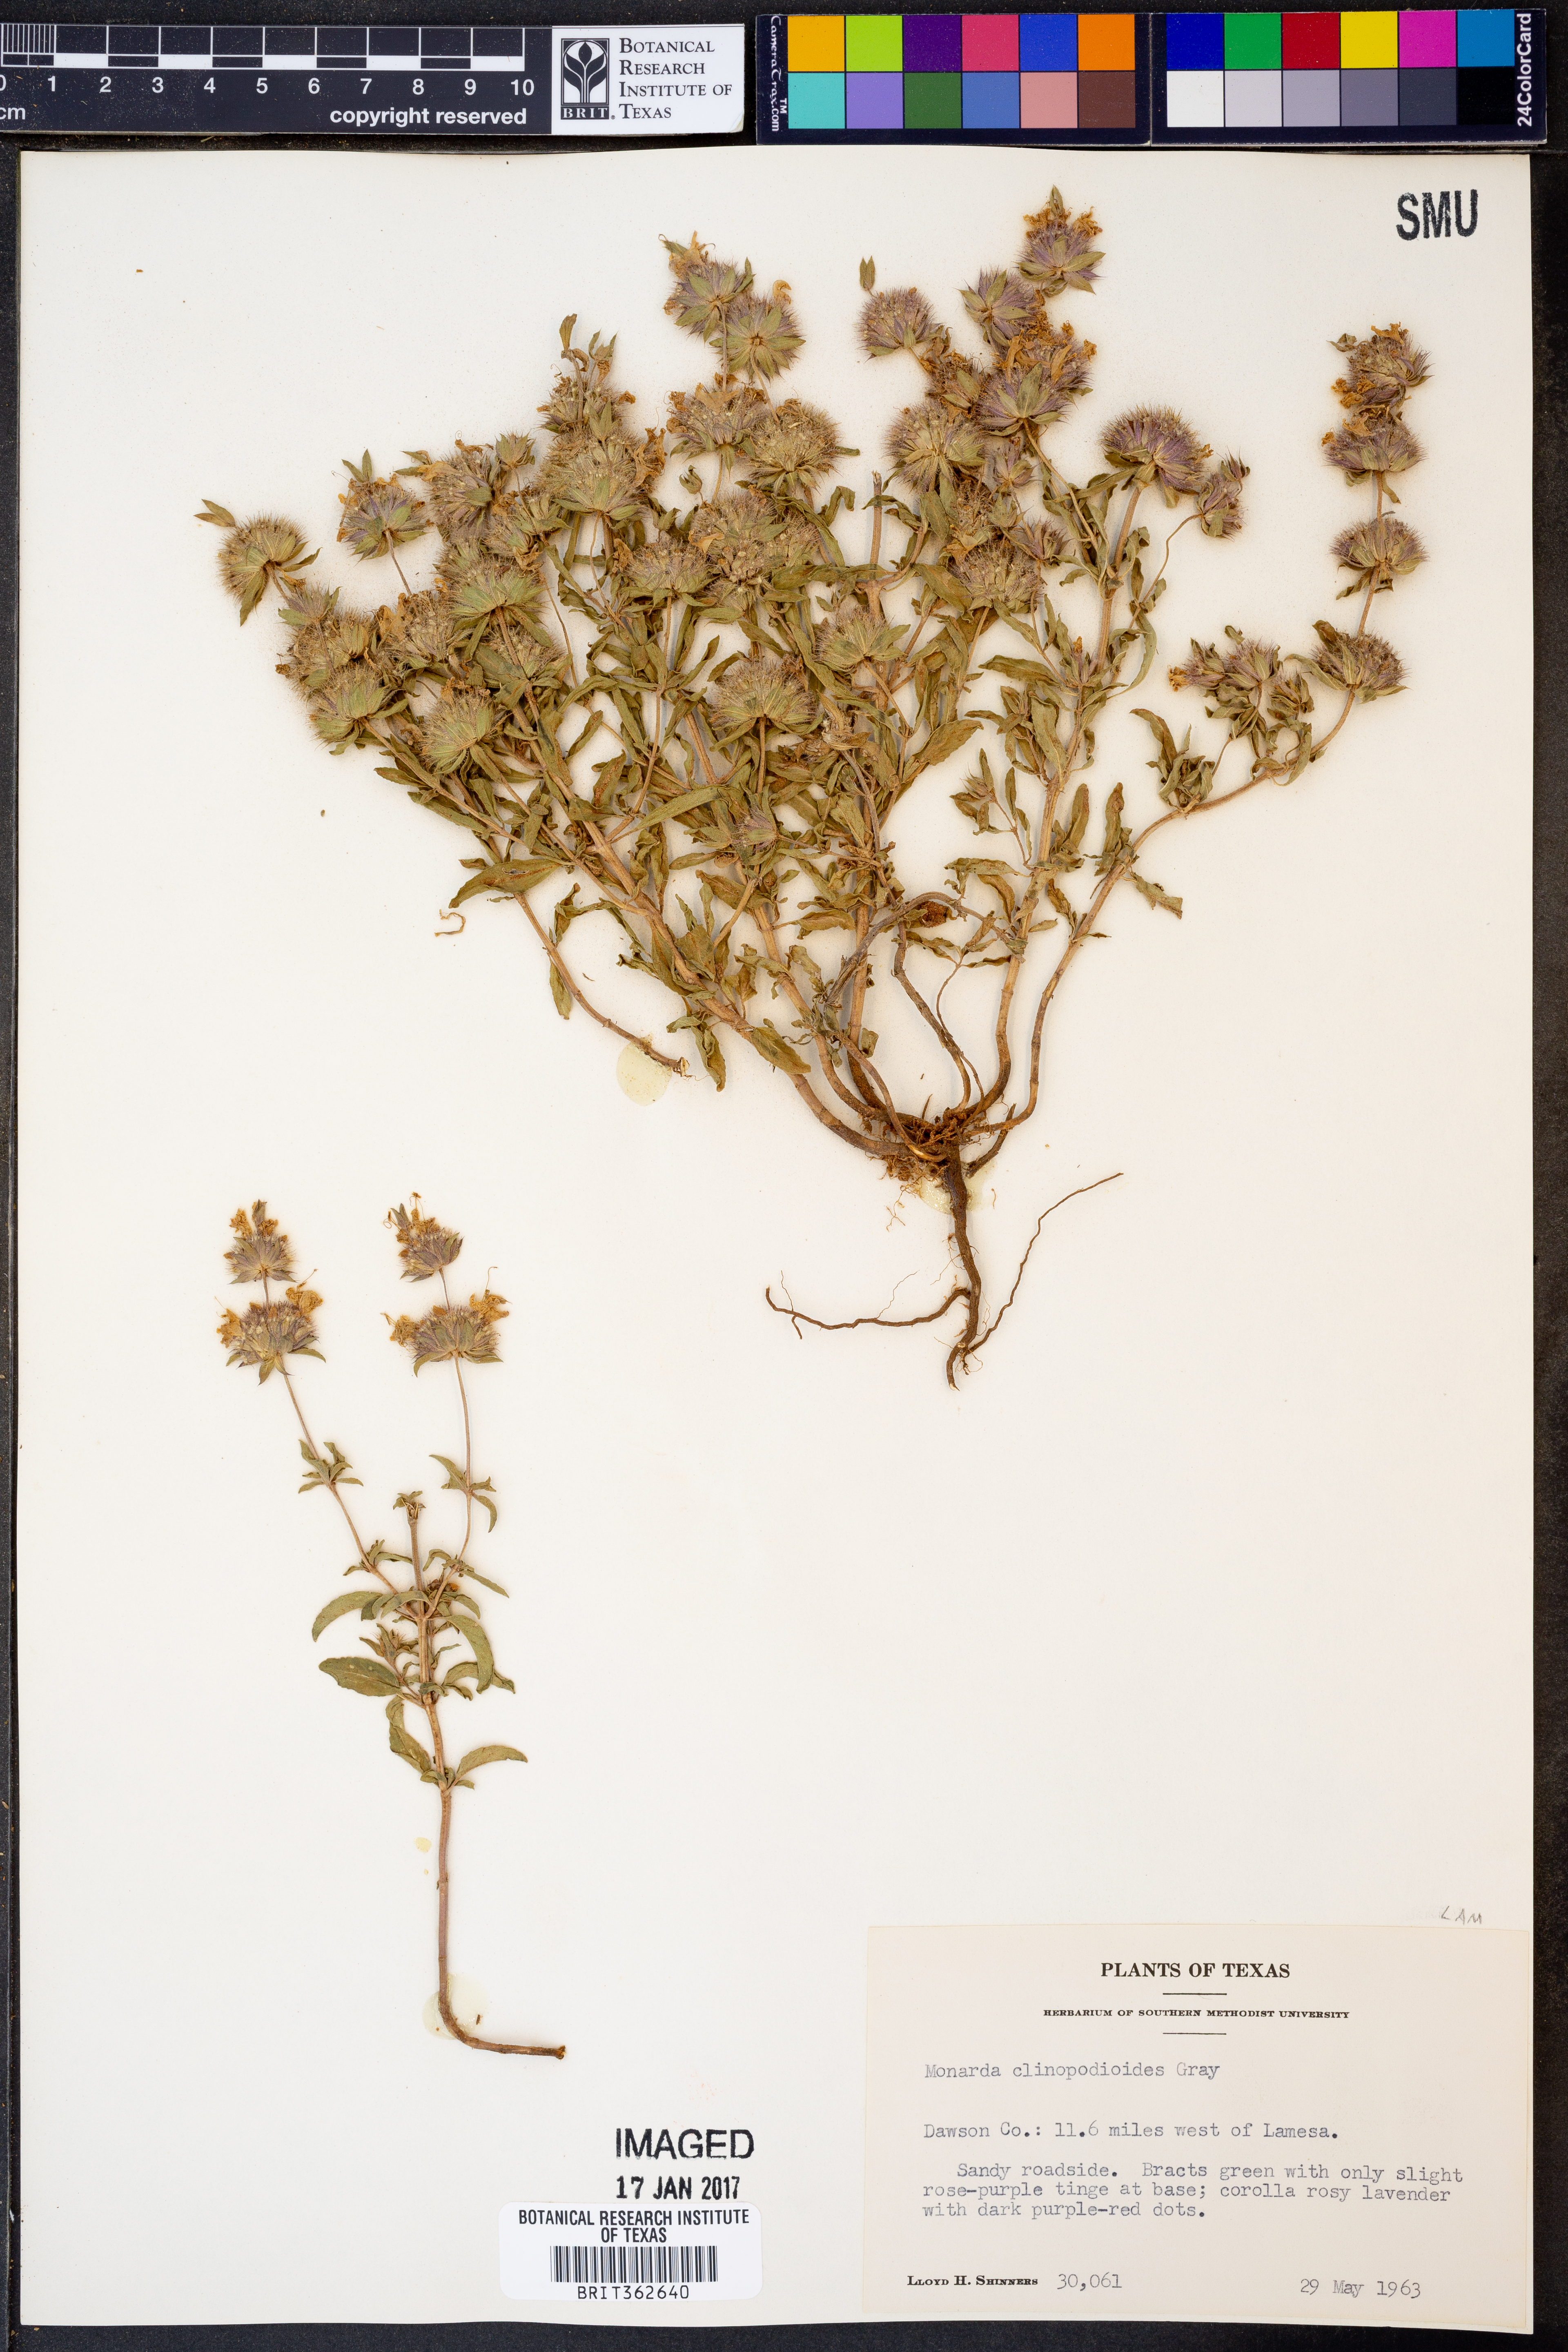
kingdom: Plantae
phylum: Tracheophyta
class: Magnoliopsida
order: Lamiales
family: Lamiaceae
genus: Monarda
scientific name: Monarda clinopodioides
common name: Basil beebalm
